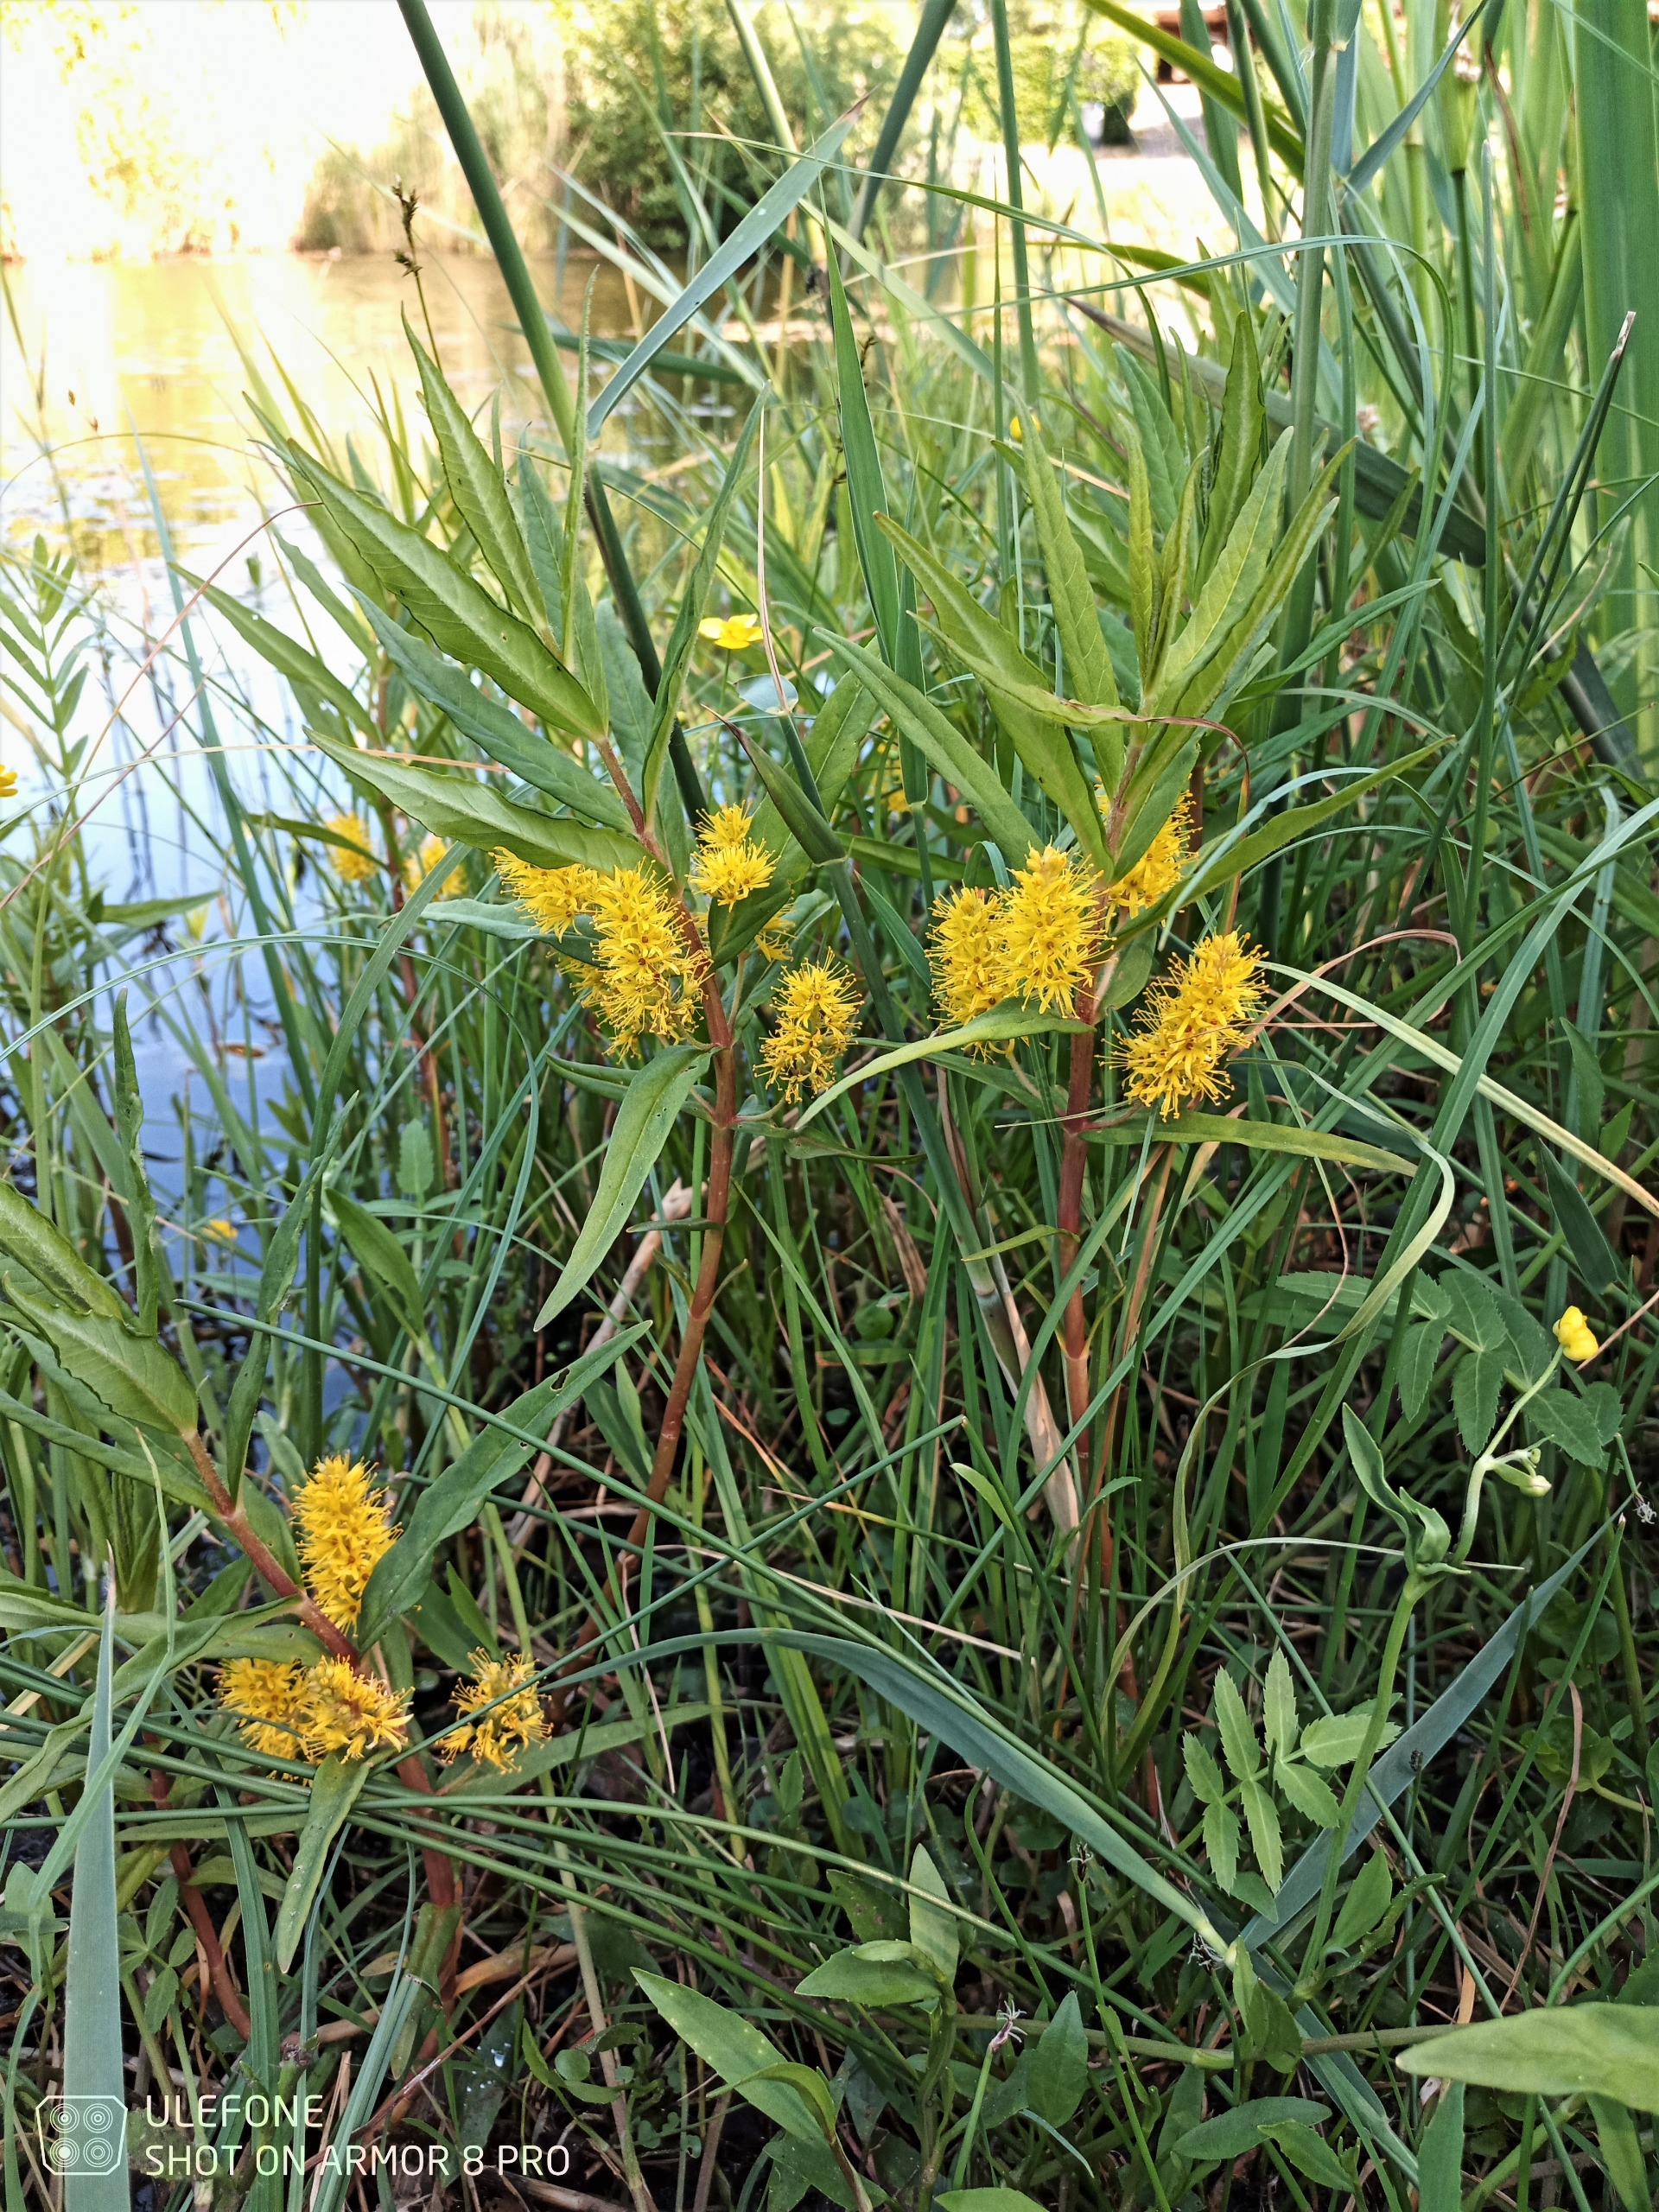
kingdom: Plantae
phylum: Tracheophyta
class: Magnoliopsida
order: Ericales
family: Primulaceae
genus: Lysimachia
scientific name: Lysimachia thyrsiflora
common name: Dusk-fredløs
